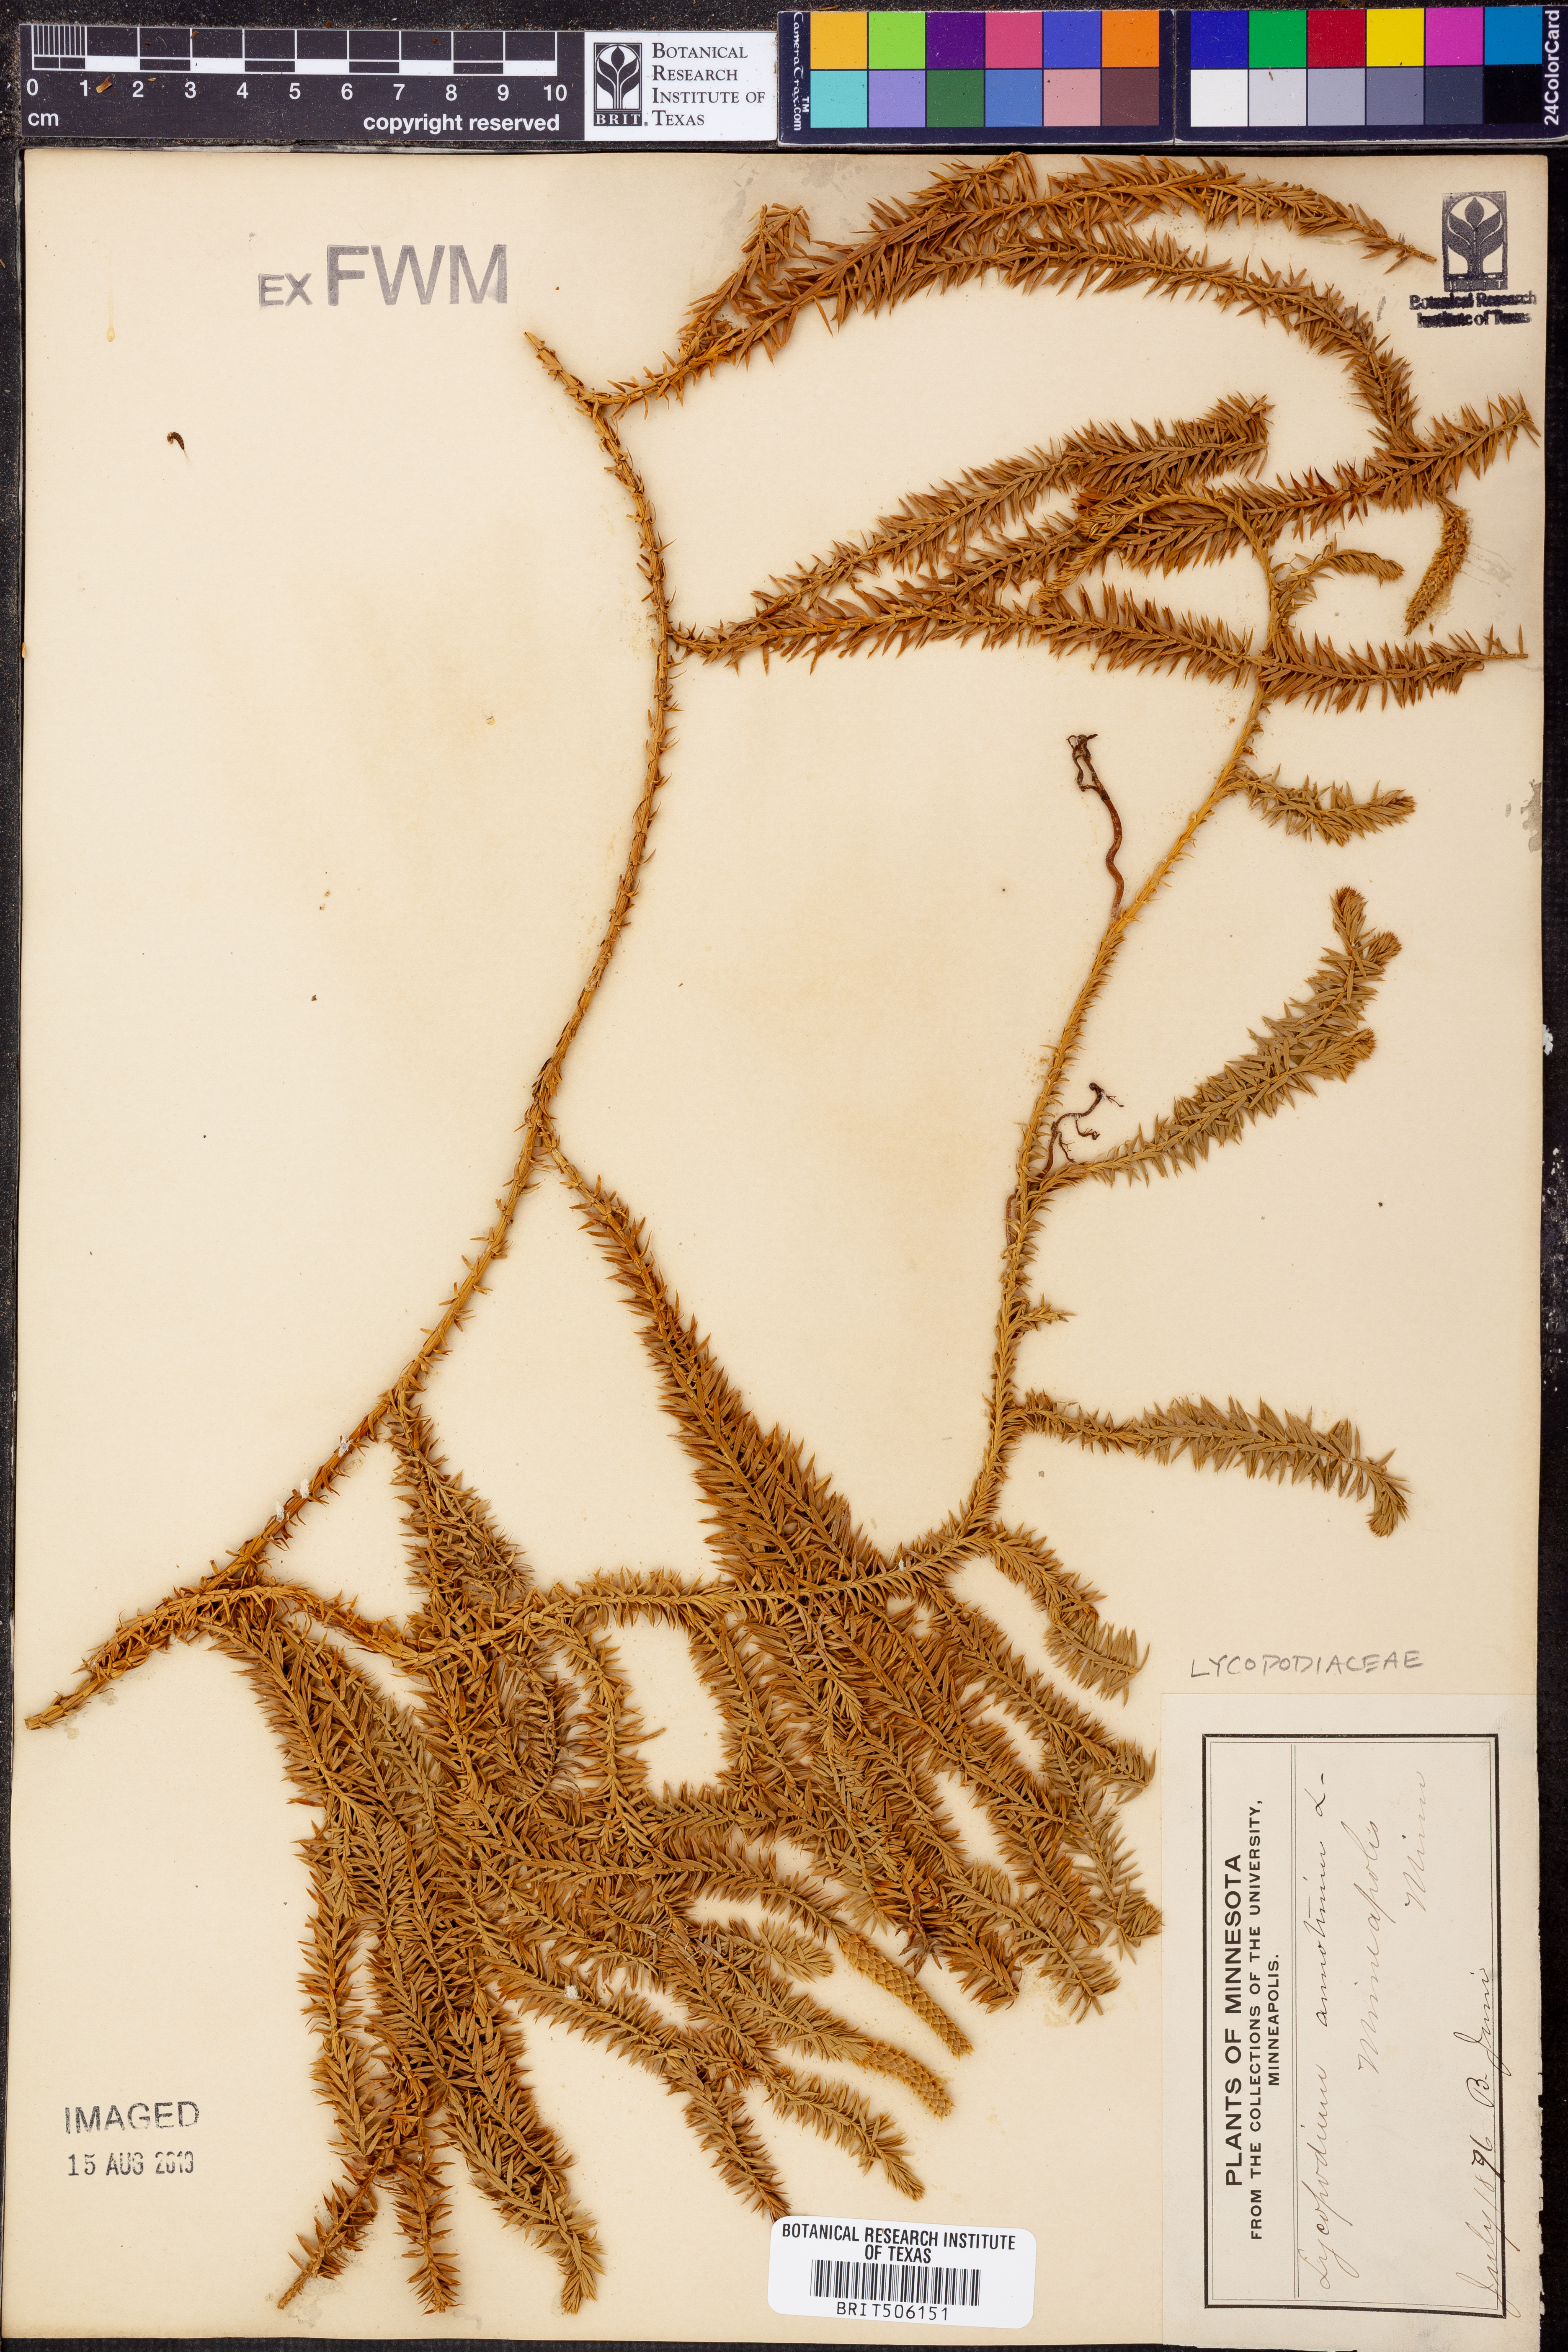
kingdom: Plantae
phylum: Tracheophyta
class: Lycopodiopsida
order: Lycopodiales
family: Lycopodiaceae
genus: Spinulum
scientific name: Spinulum annotinum
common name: Interrupted club-moss
